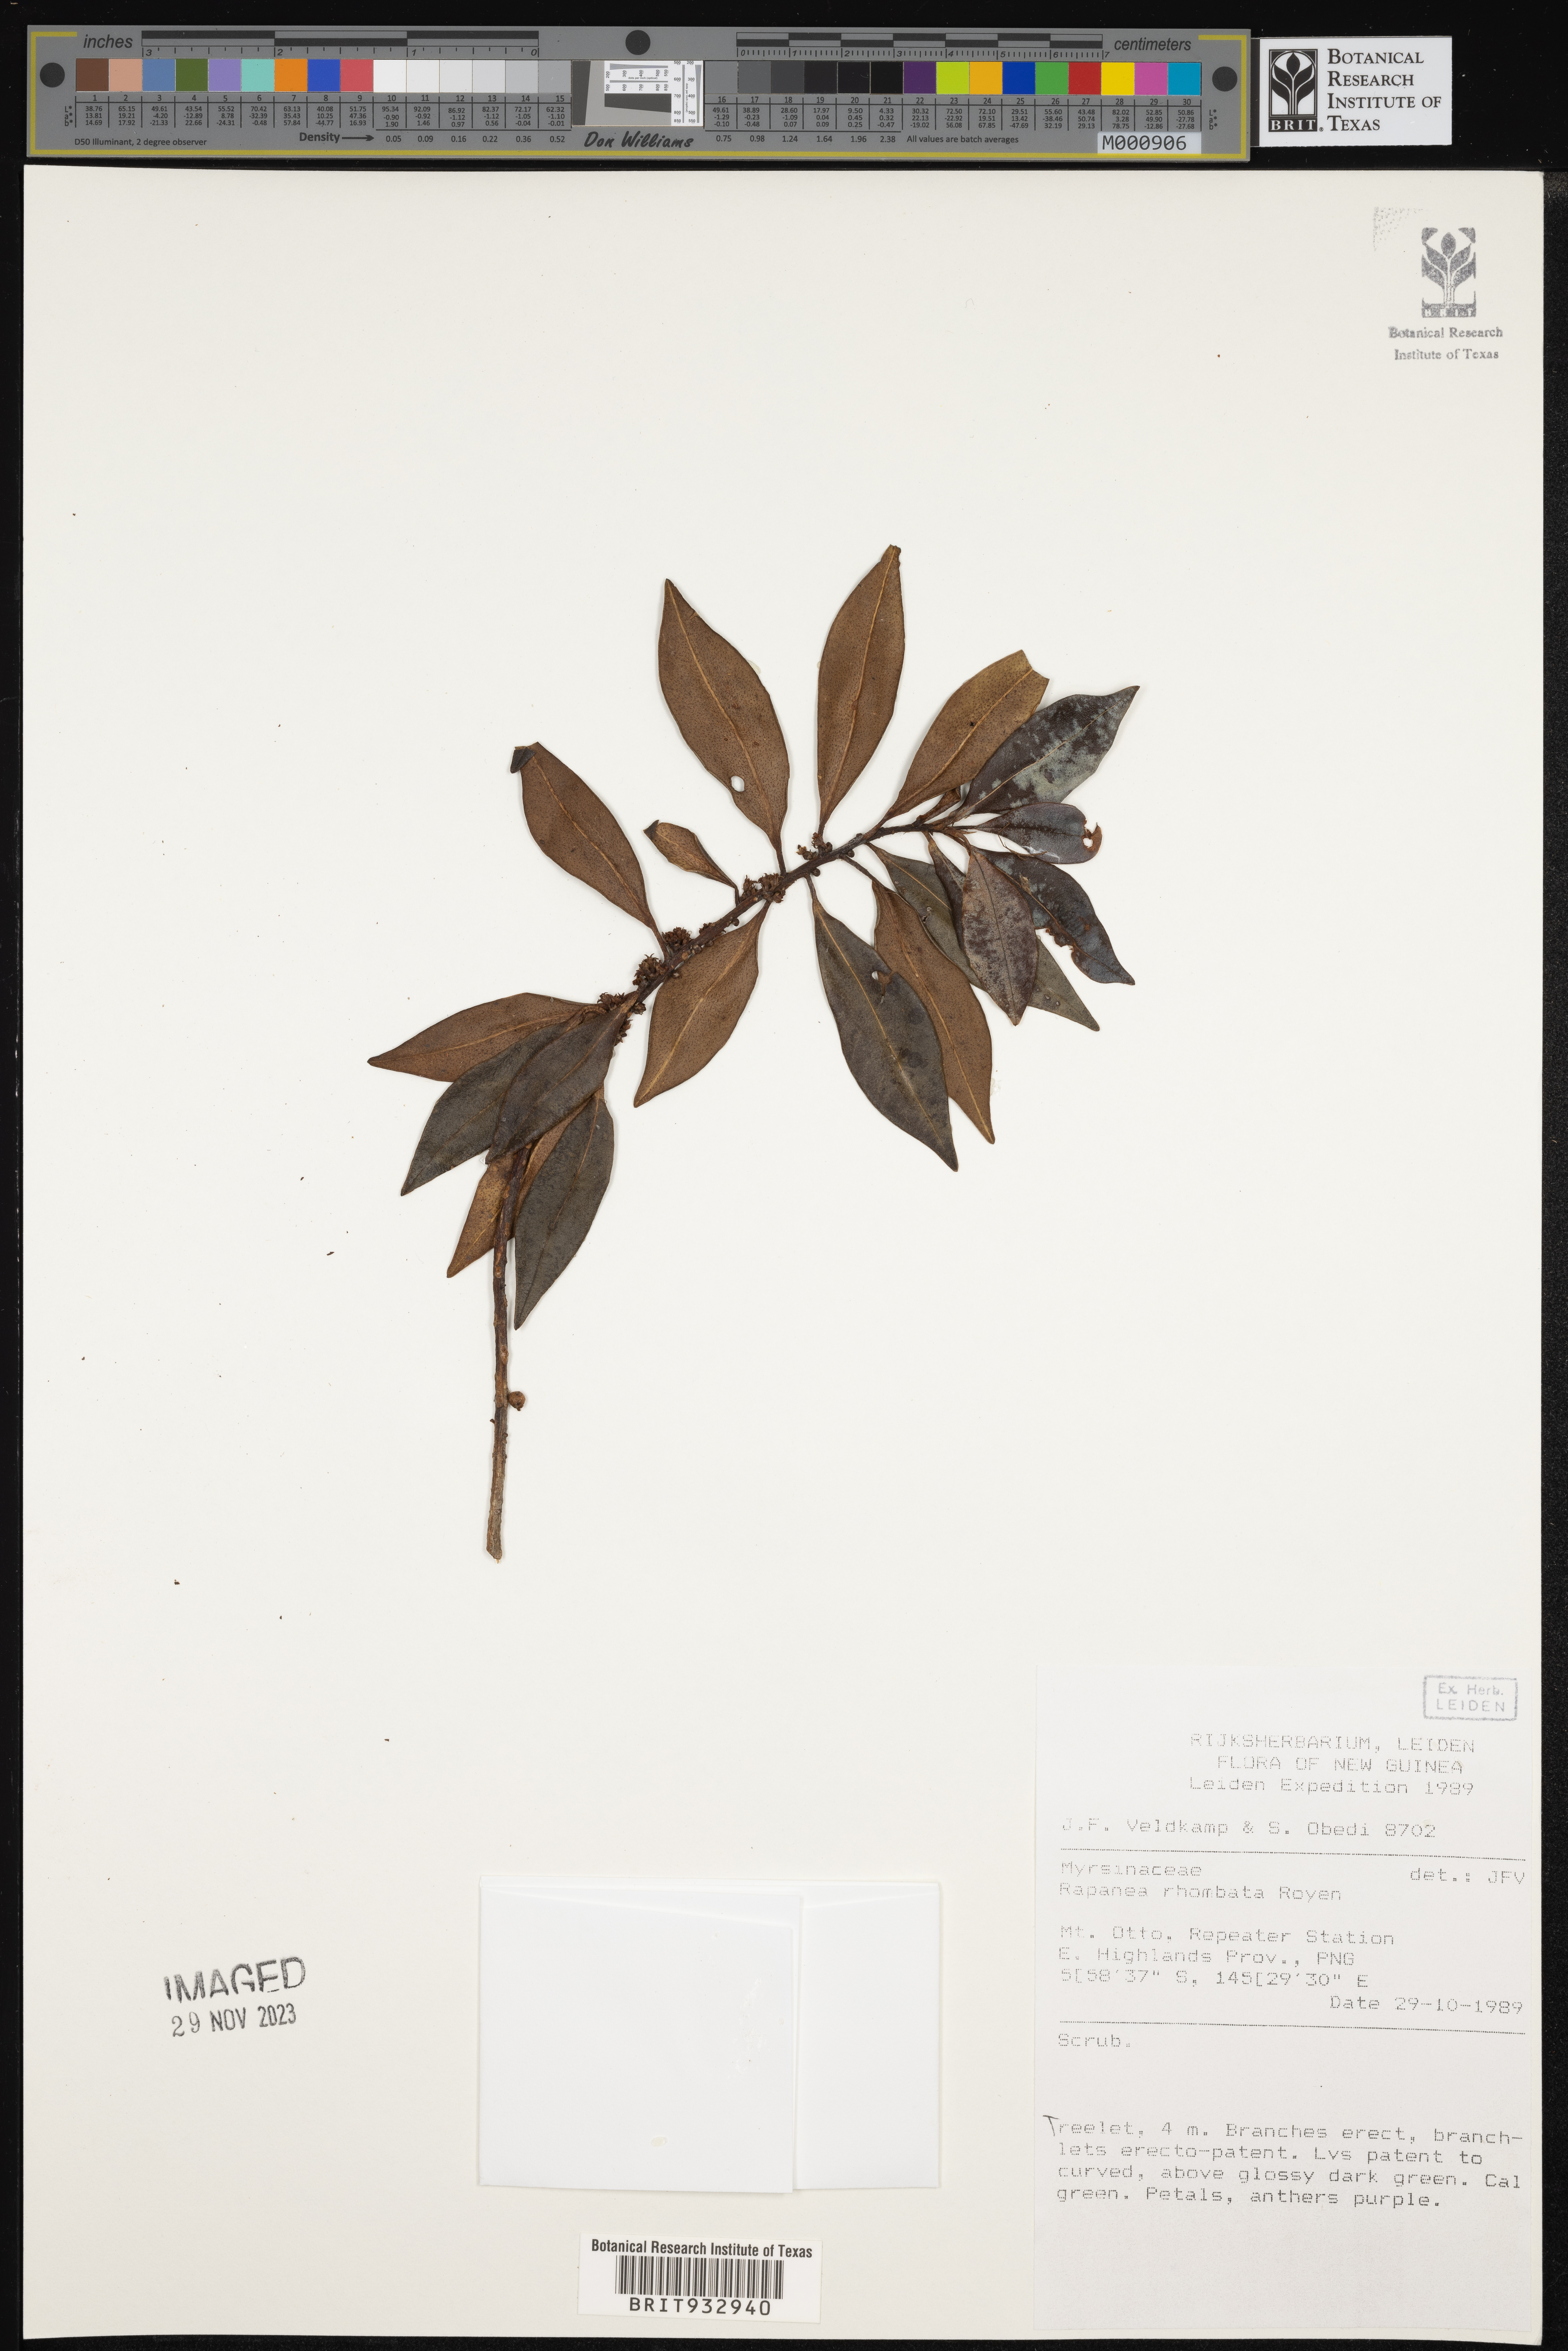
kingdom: Plantae
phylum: Tracheophyta
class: Magnoliopsida
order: Ericales
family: Primulaceae
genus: Myrsine
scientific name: Myrsine
